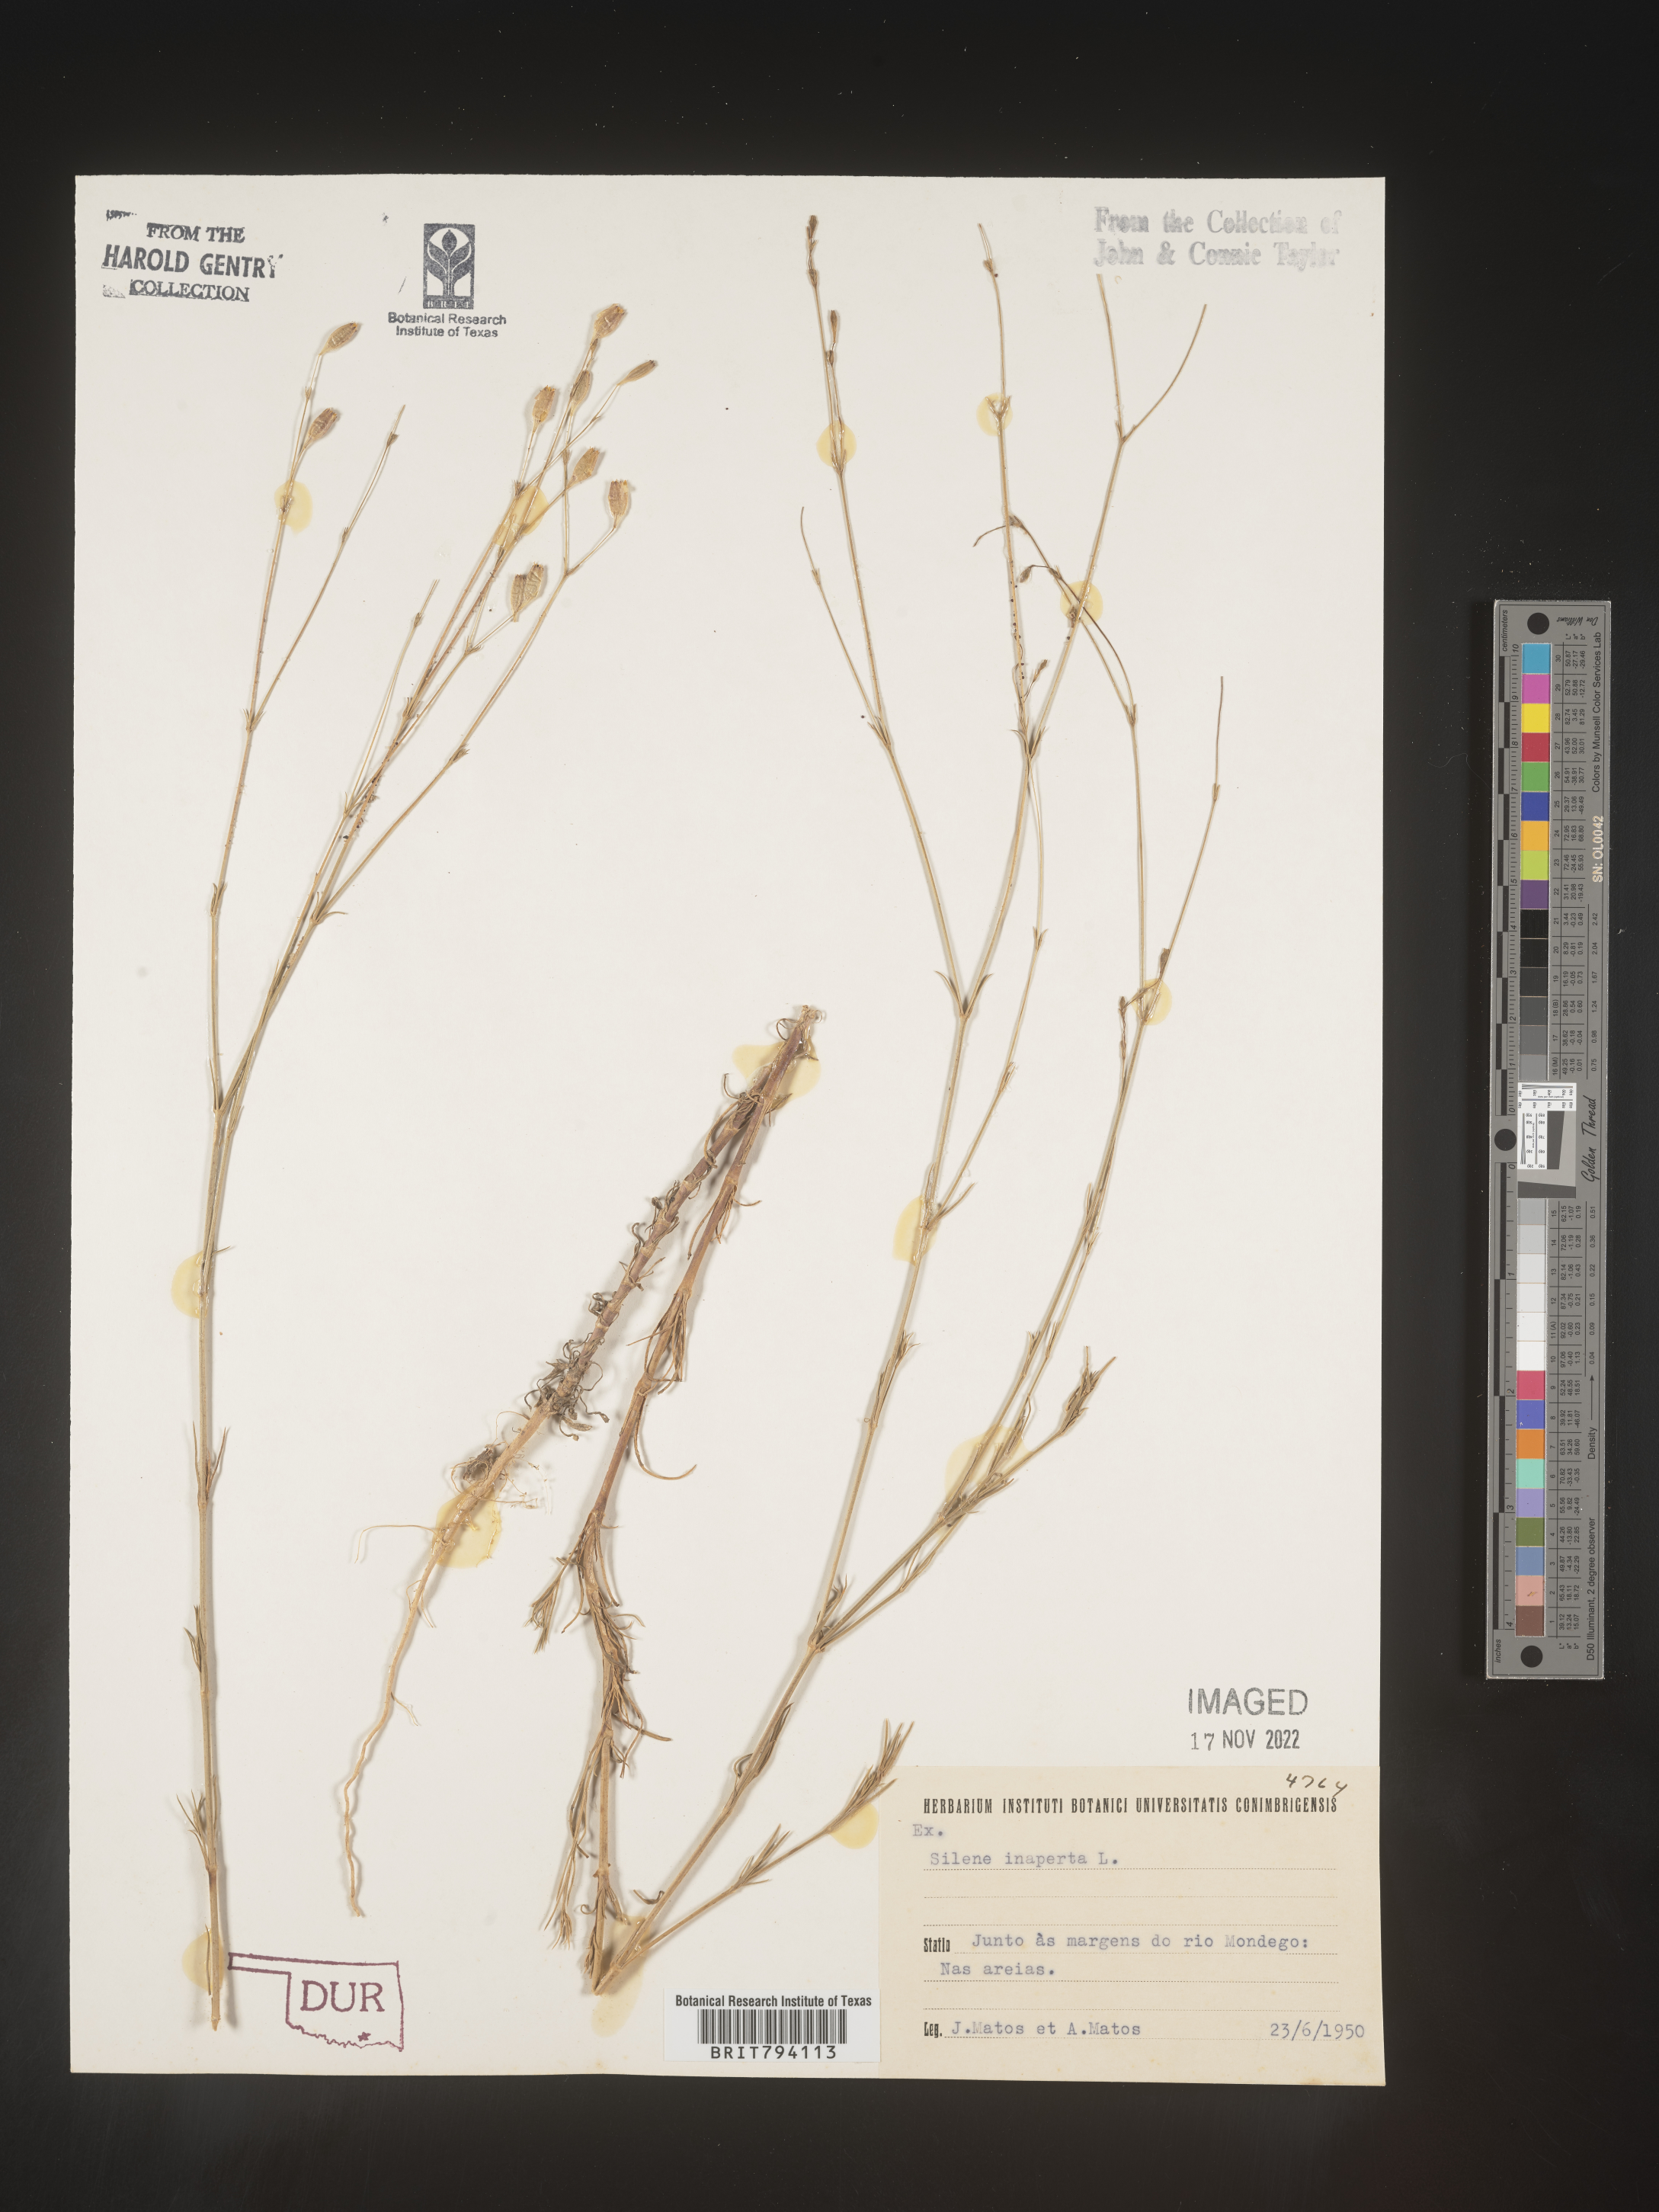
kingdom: Plantae
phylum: Tracheophyta
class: Magnoliopsida
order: Caryophyllales
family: Caryophyllaceae
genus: Silene
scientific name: Silene inaperta
